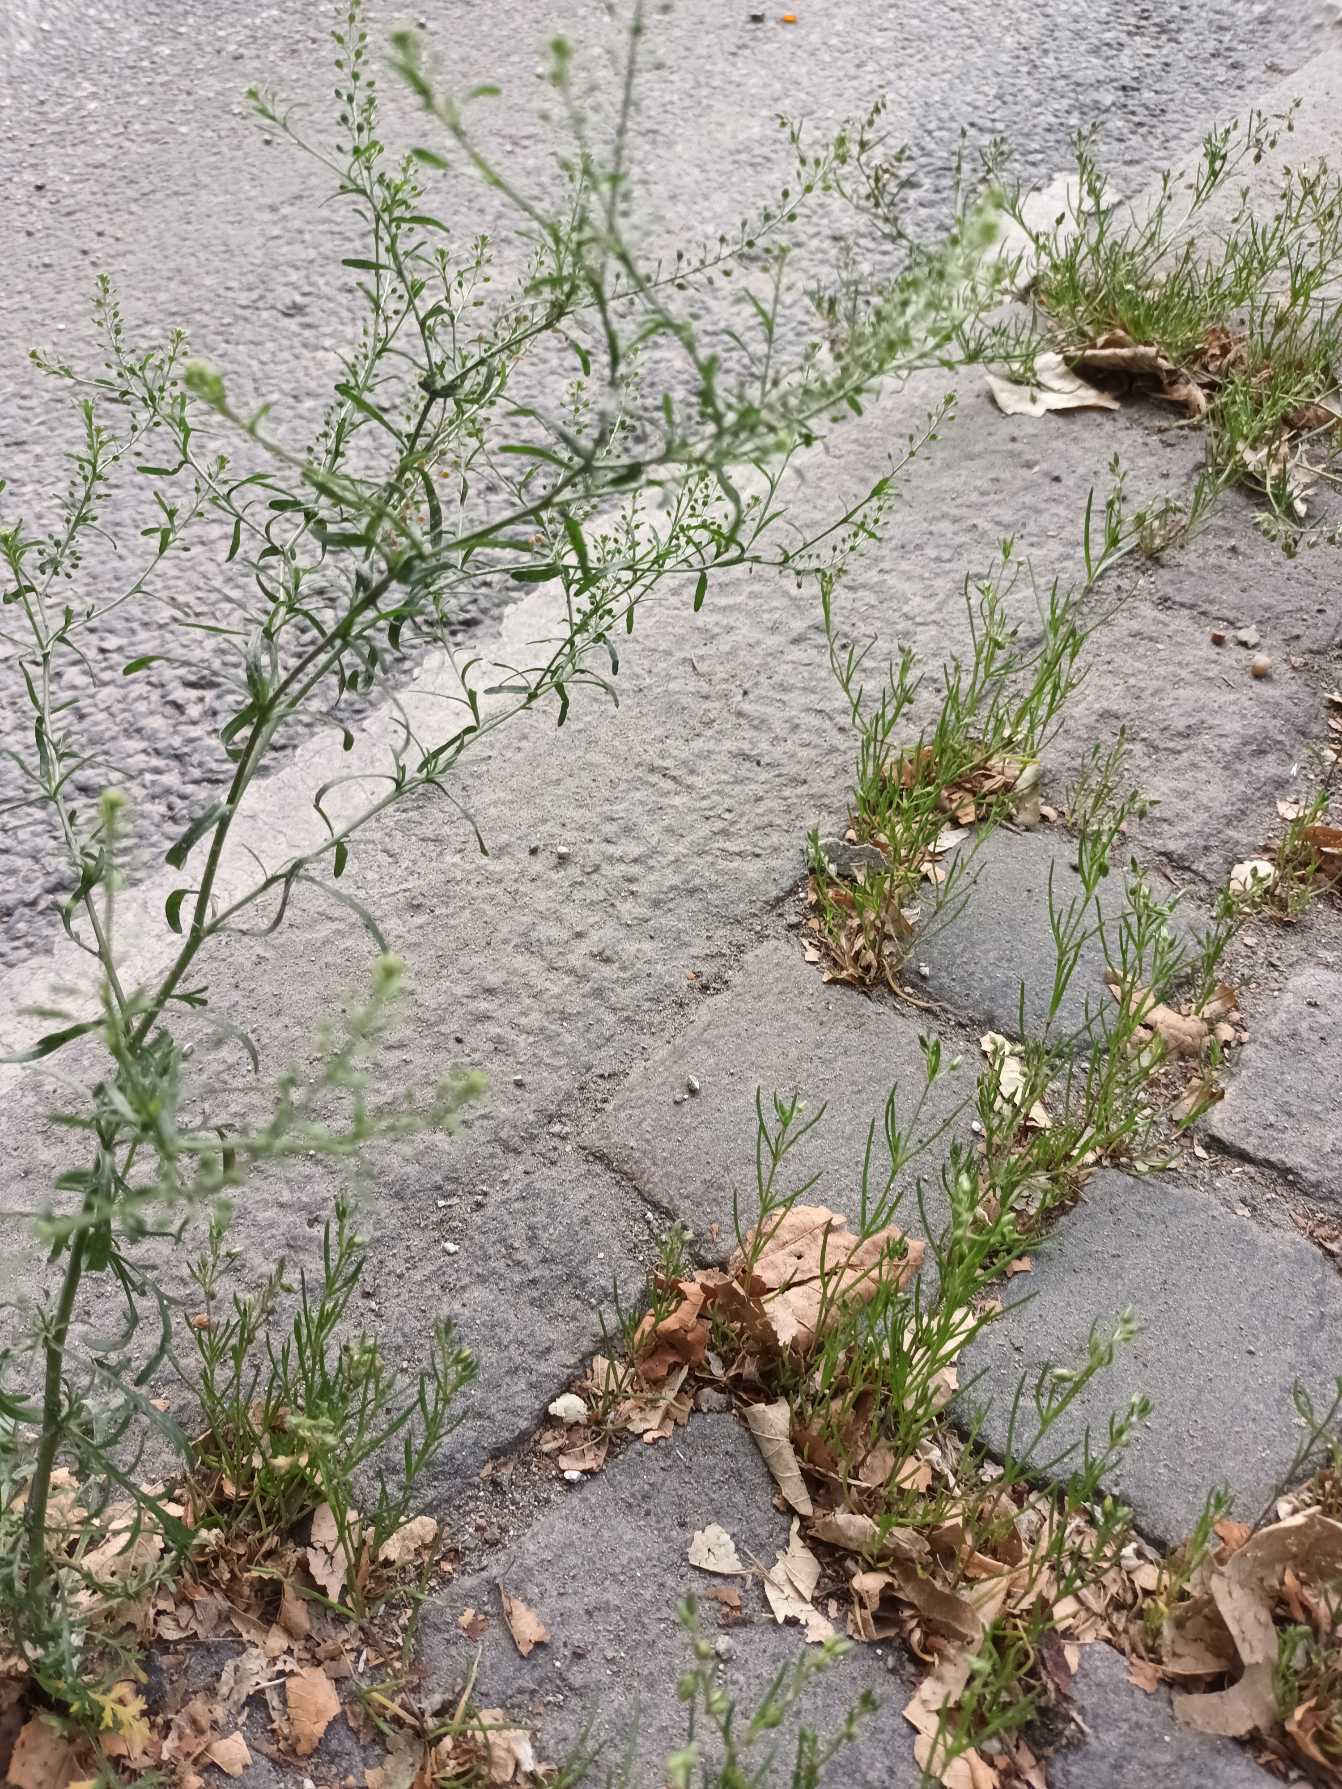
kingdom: Plantae
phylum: Tracheophyta
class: Magnoliopsida
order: Brassicales
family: Brassicaceae
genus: Lepidium
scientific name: Lepidium ruderale
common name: Stinkende karse
